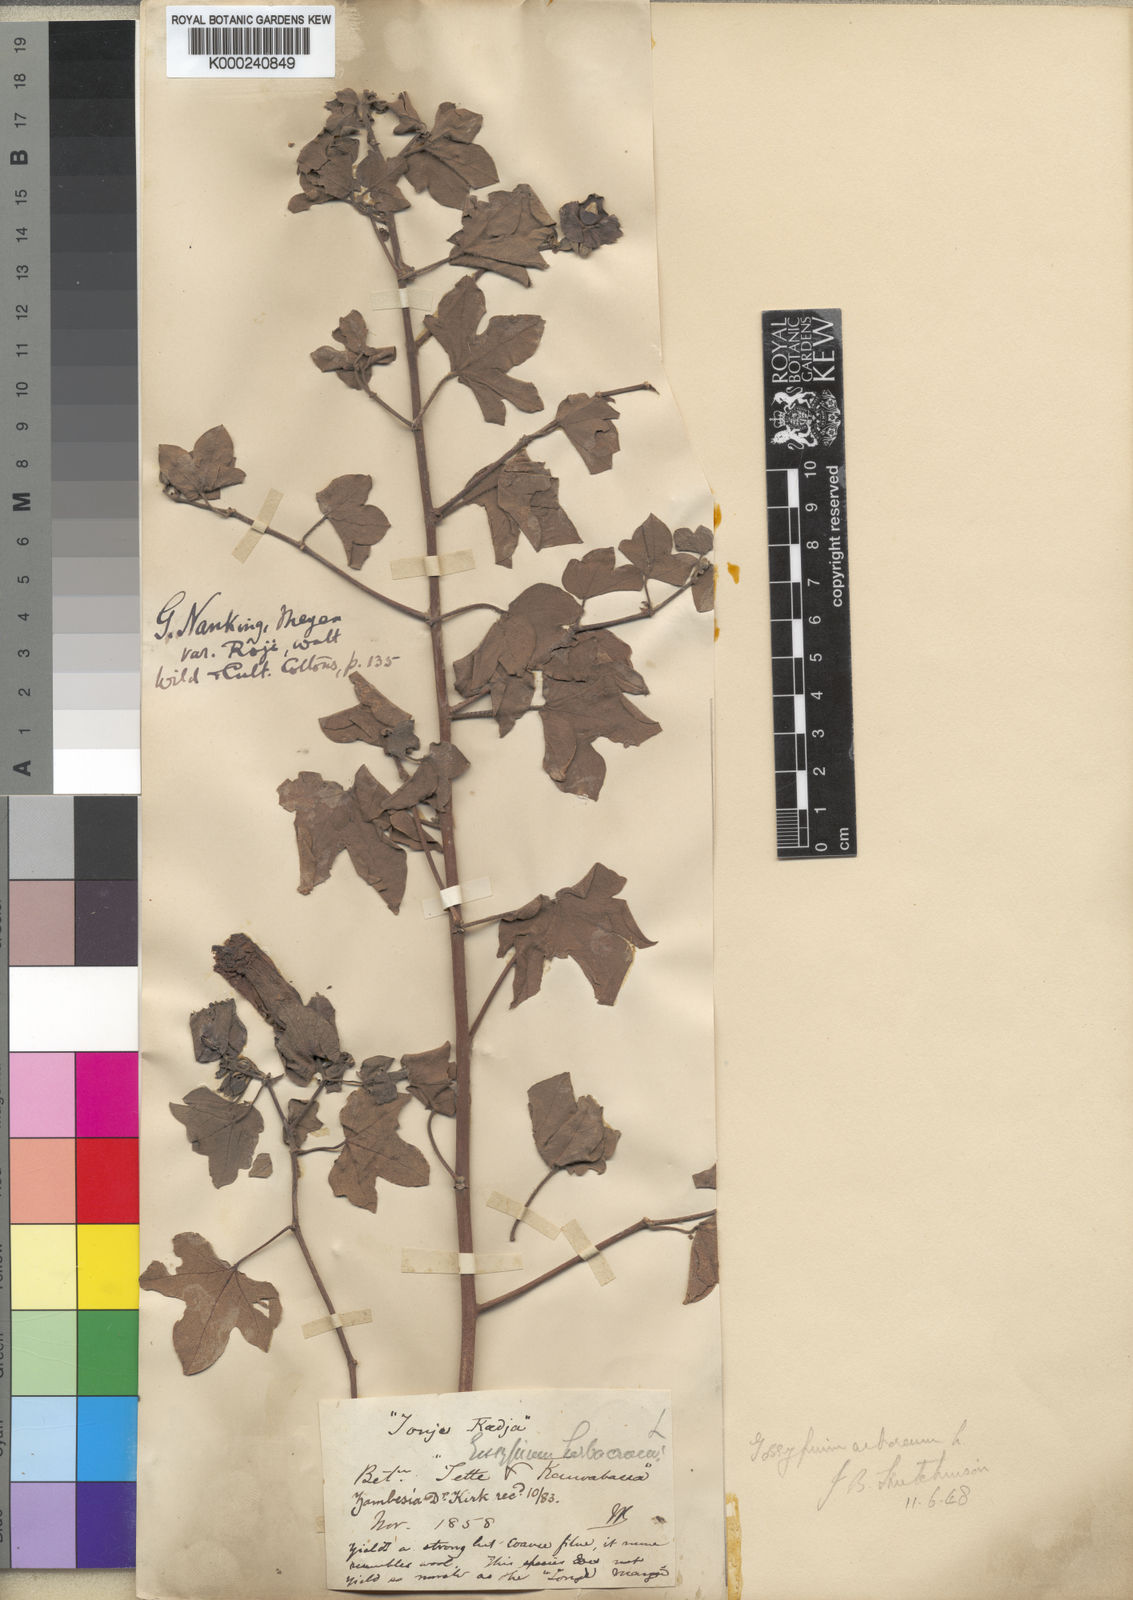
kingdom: Plantae
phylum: Tracheophyta
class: Magnoliopsida
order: Malvales
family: Malvaceae
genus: Gossypium
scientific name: Gossypium arboreum
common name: Tree cotton
